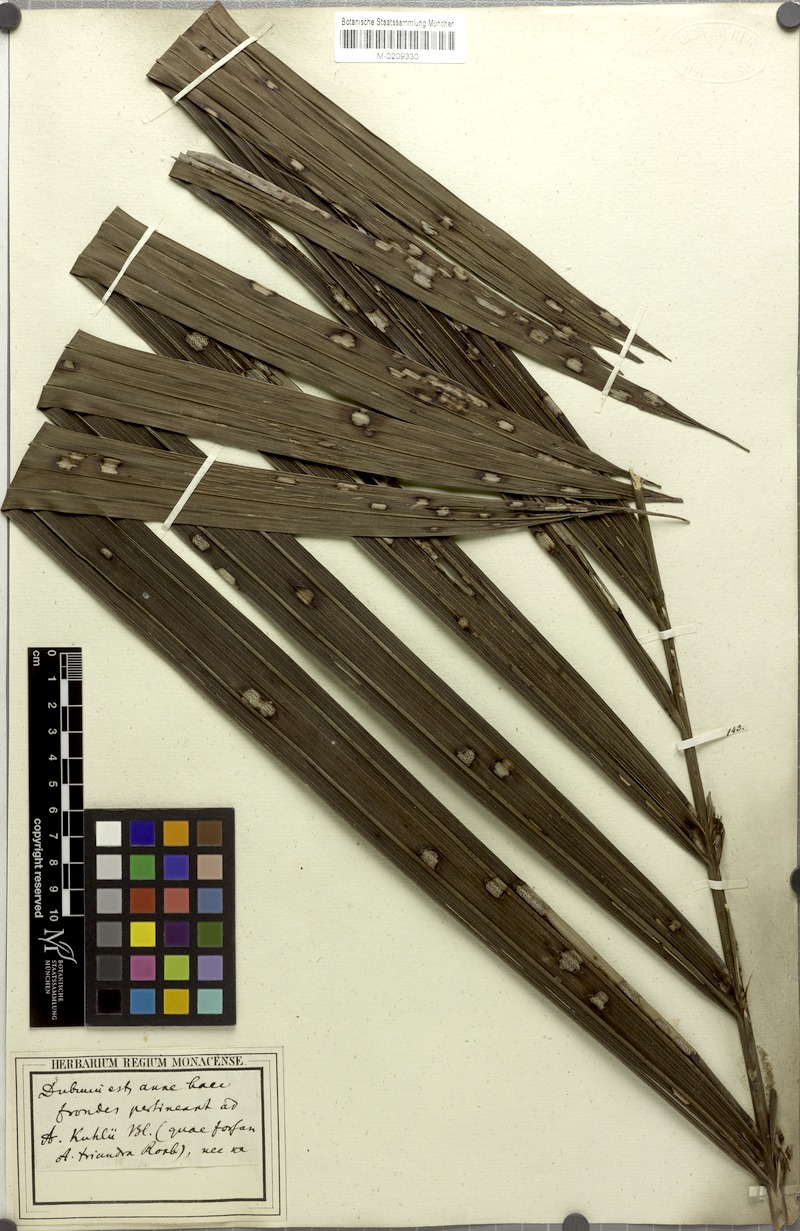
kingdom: Plantae
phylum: Tracheophyta
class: Liliopsida
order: Arecales
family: Arecaceae
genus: Areca
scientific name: Areca catechu
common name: Indian-nut
